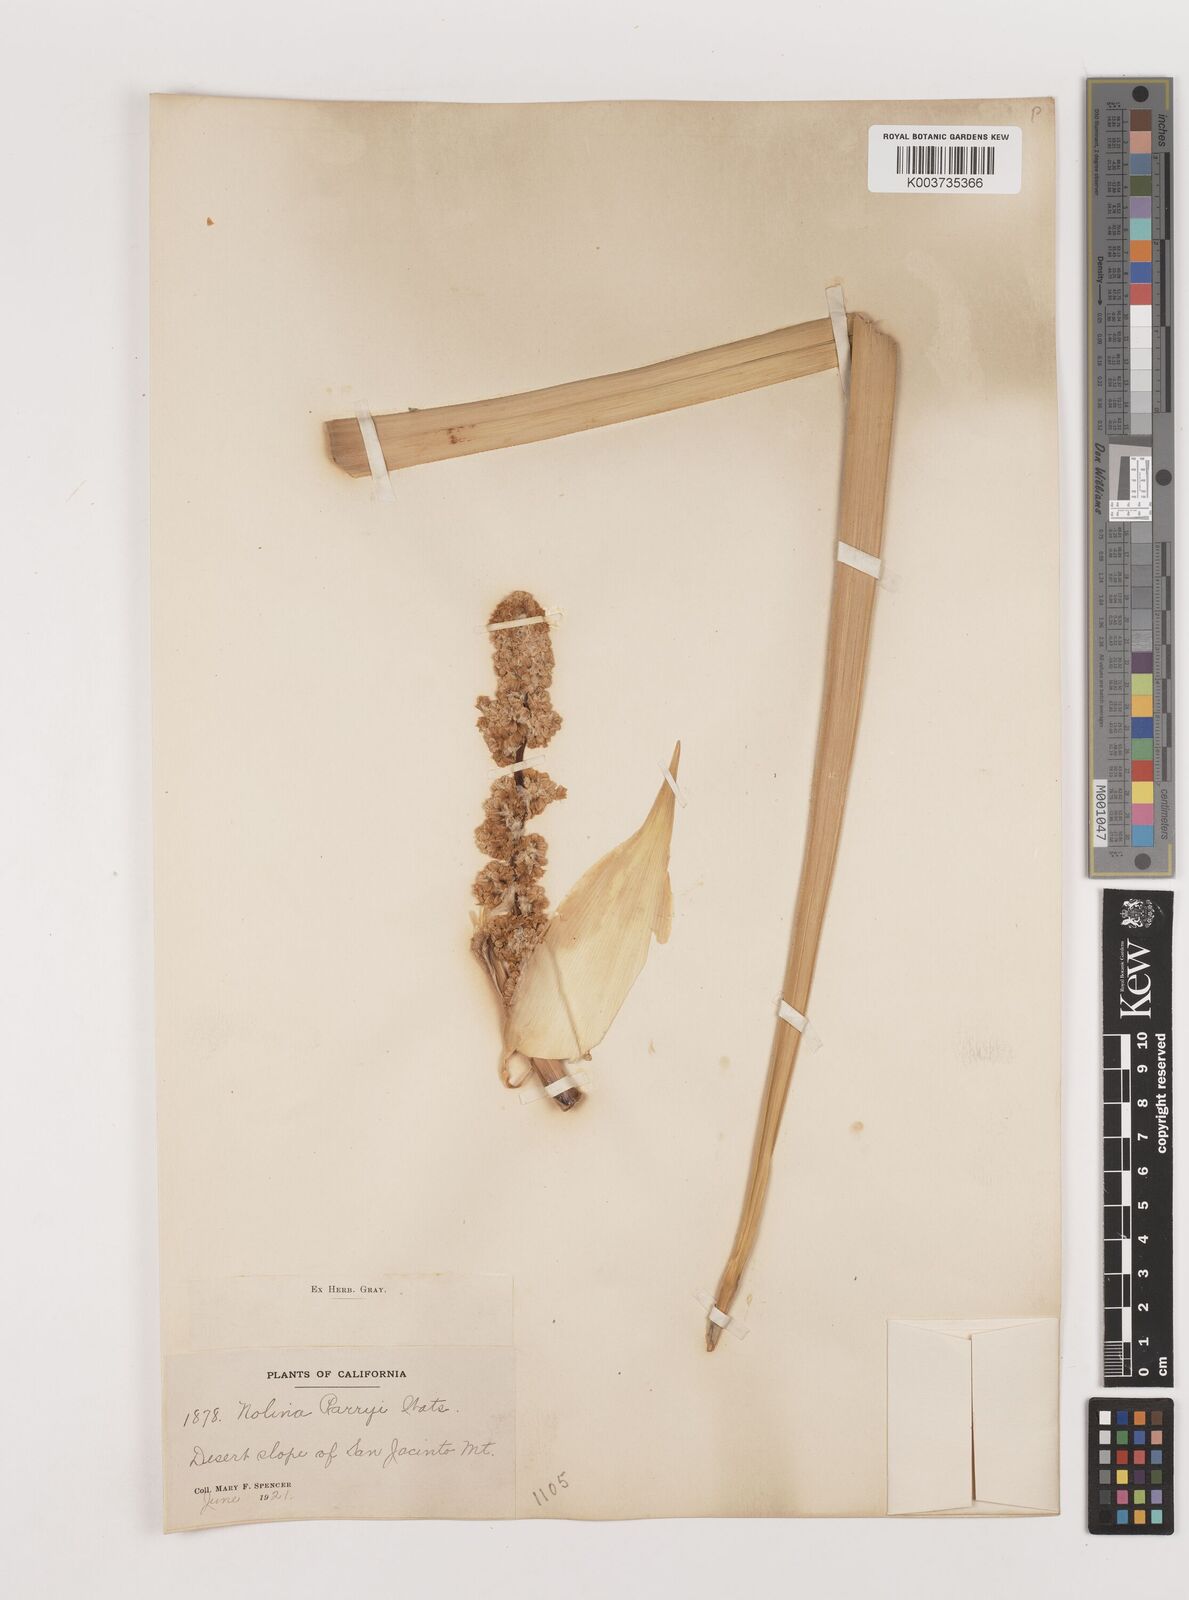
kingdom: Plantae
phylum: Tracheophyta
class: Liliopsida
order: Asparagales
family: Asparagaceae
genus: Nolina
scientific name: Nolina parryi
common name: Parry nolina
